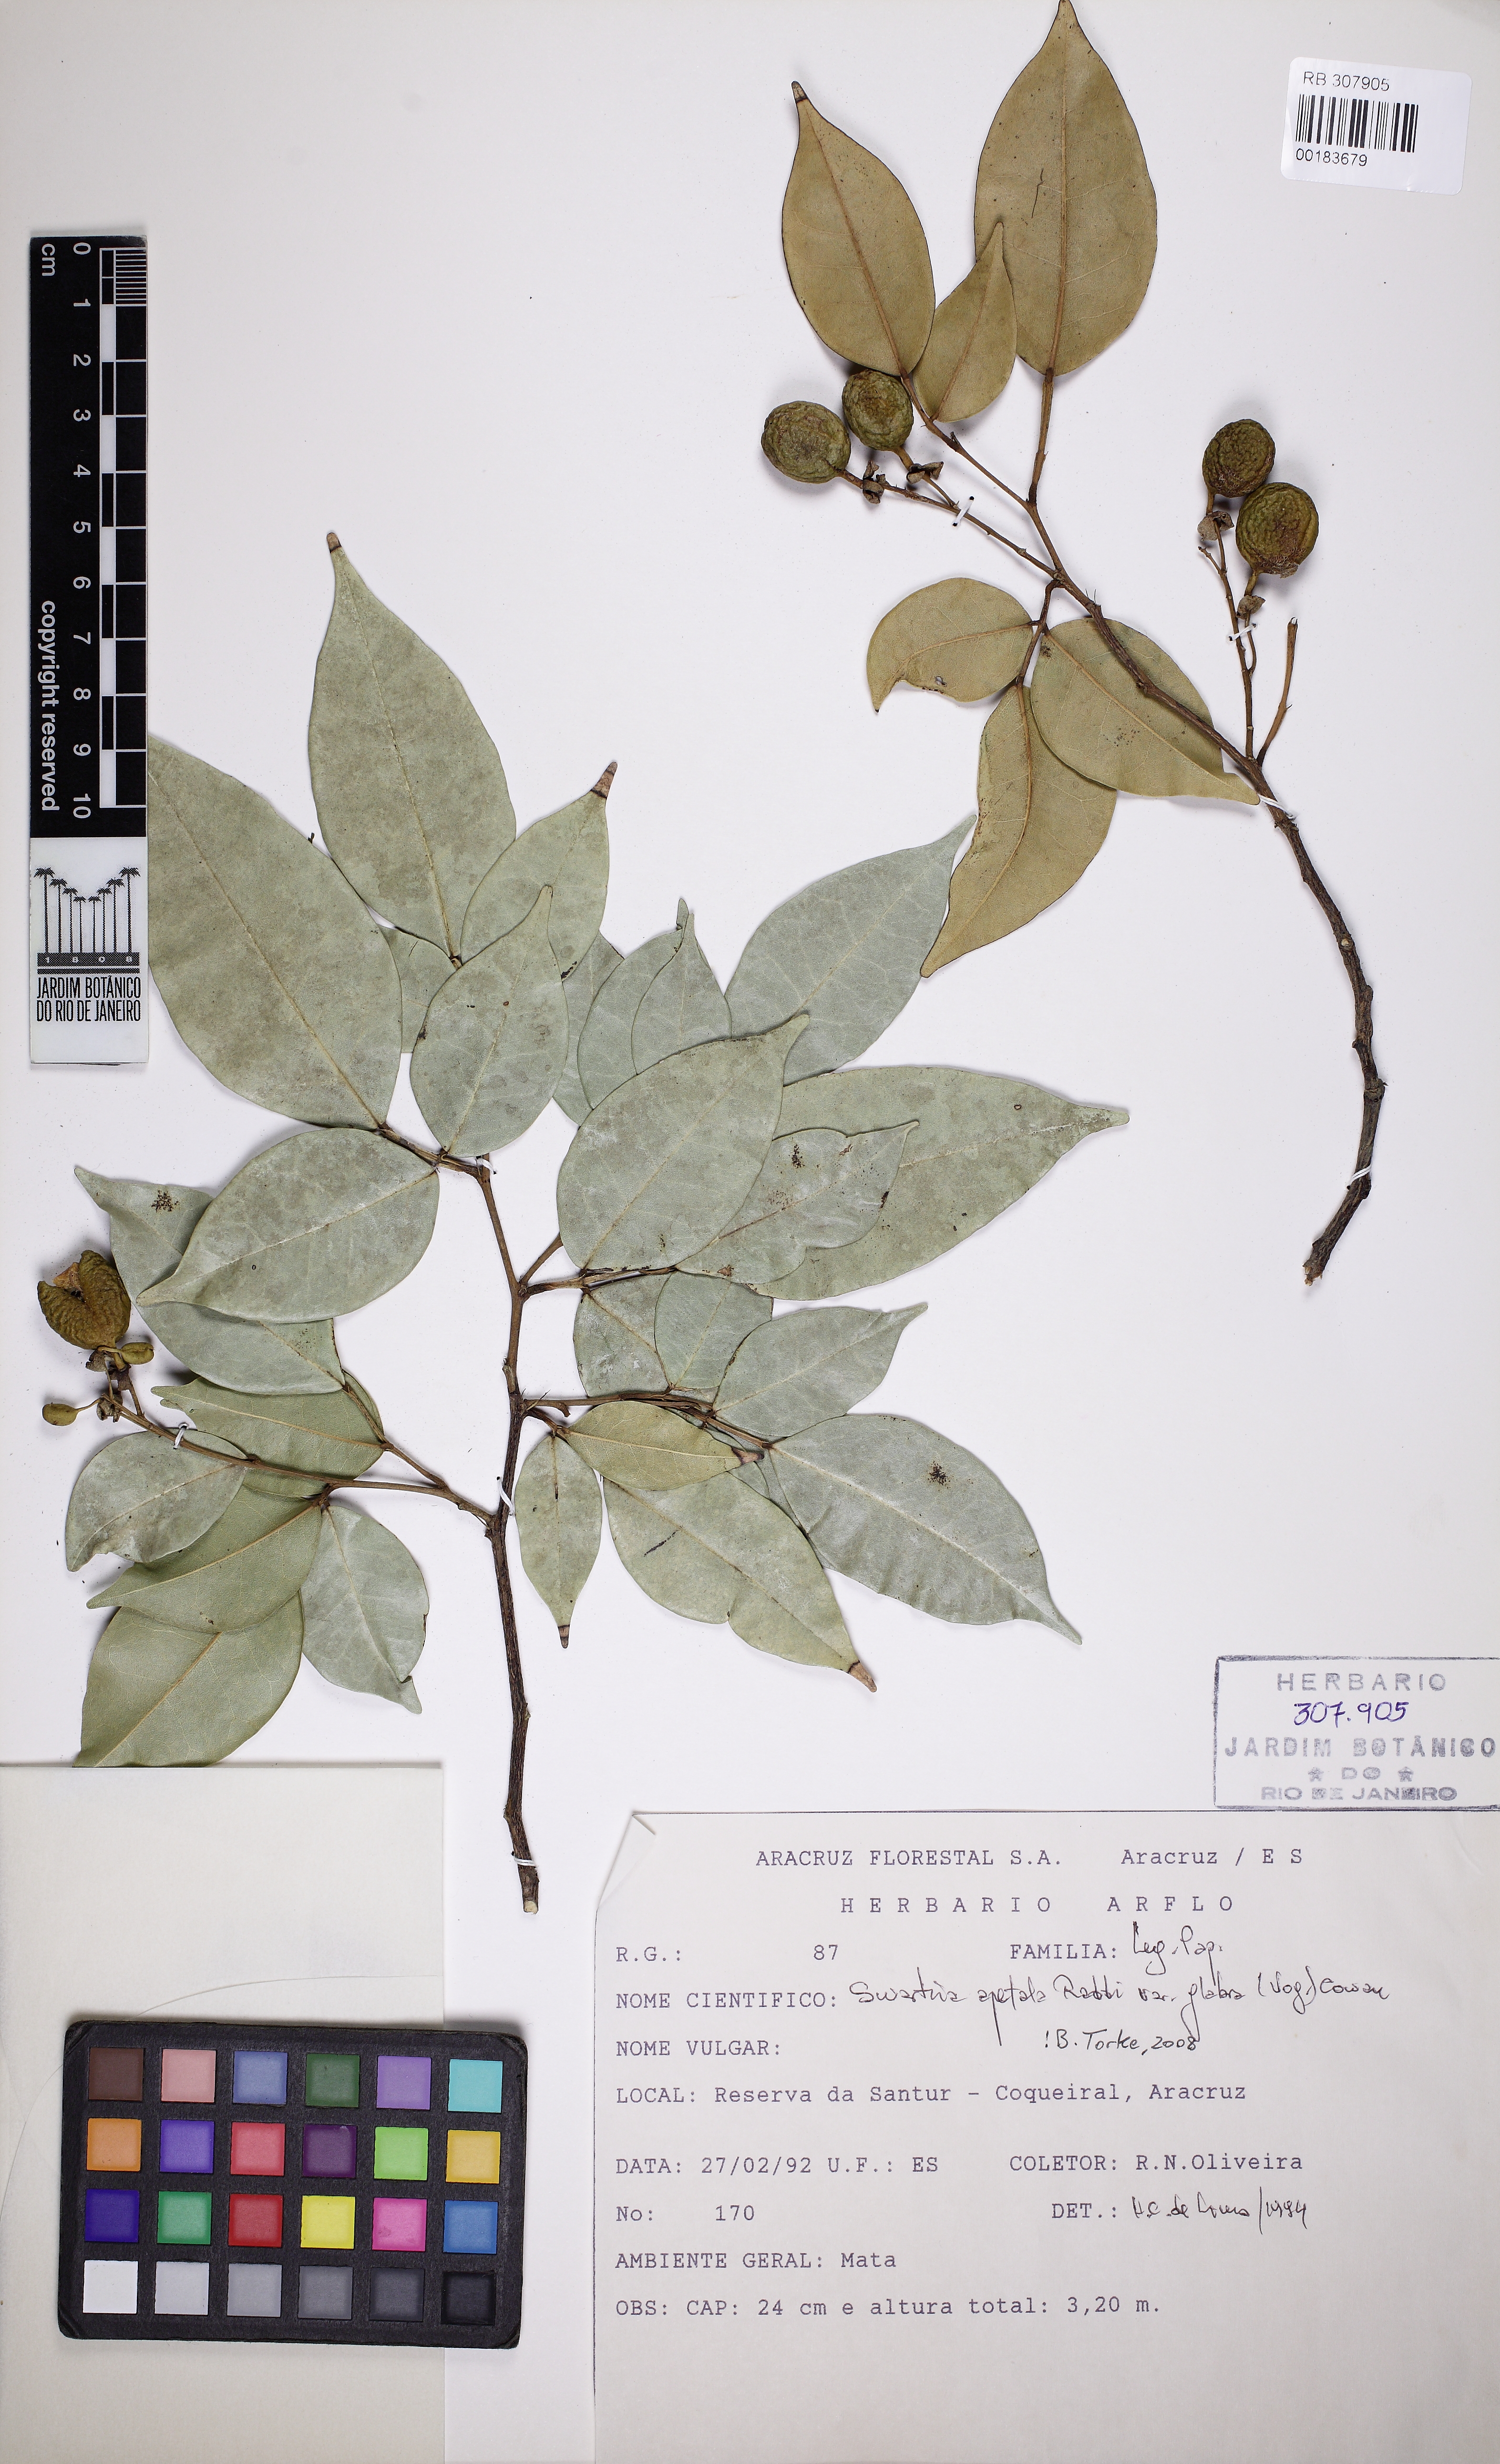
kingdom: Plantae
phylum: Tracheophyta
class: Magnoliopsida
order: Fabales
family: Fabaceae
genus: Swartzia
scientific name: Swartzia apetala
